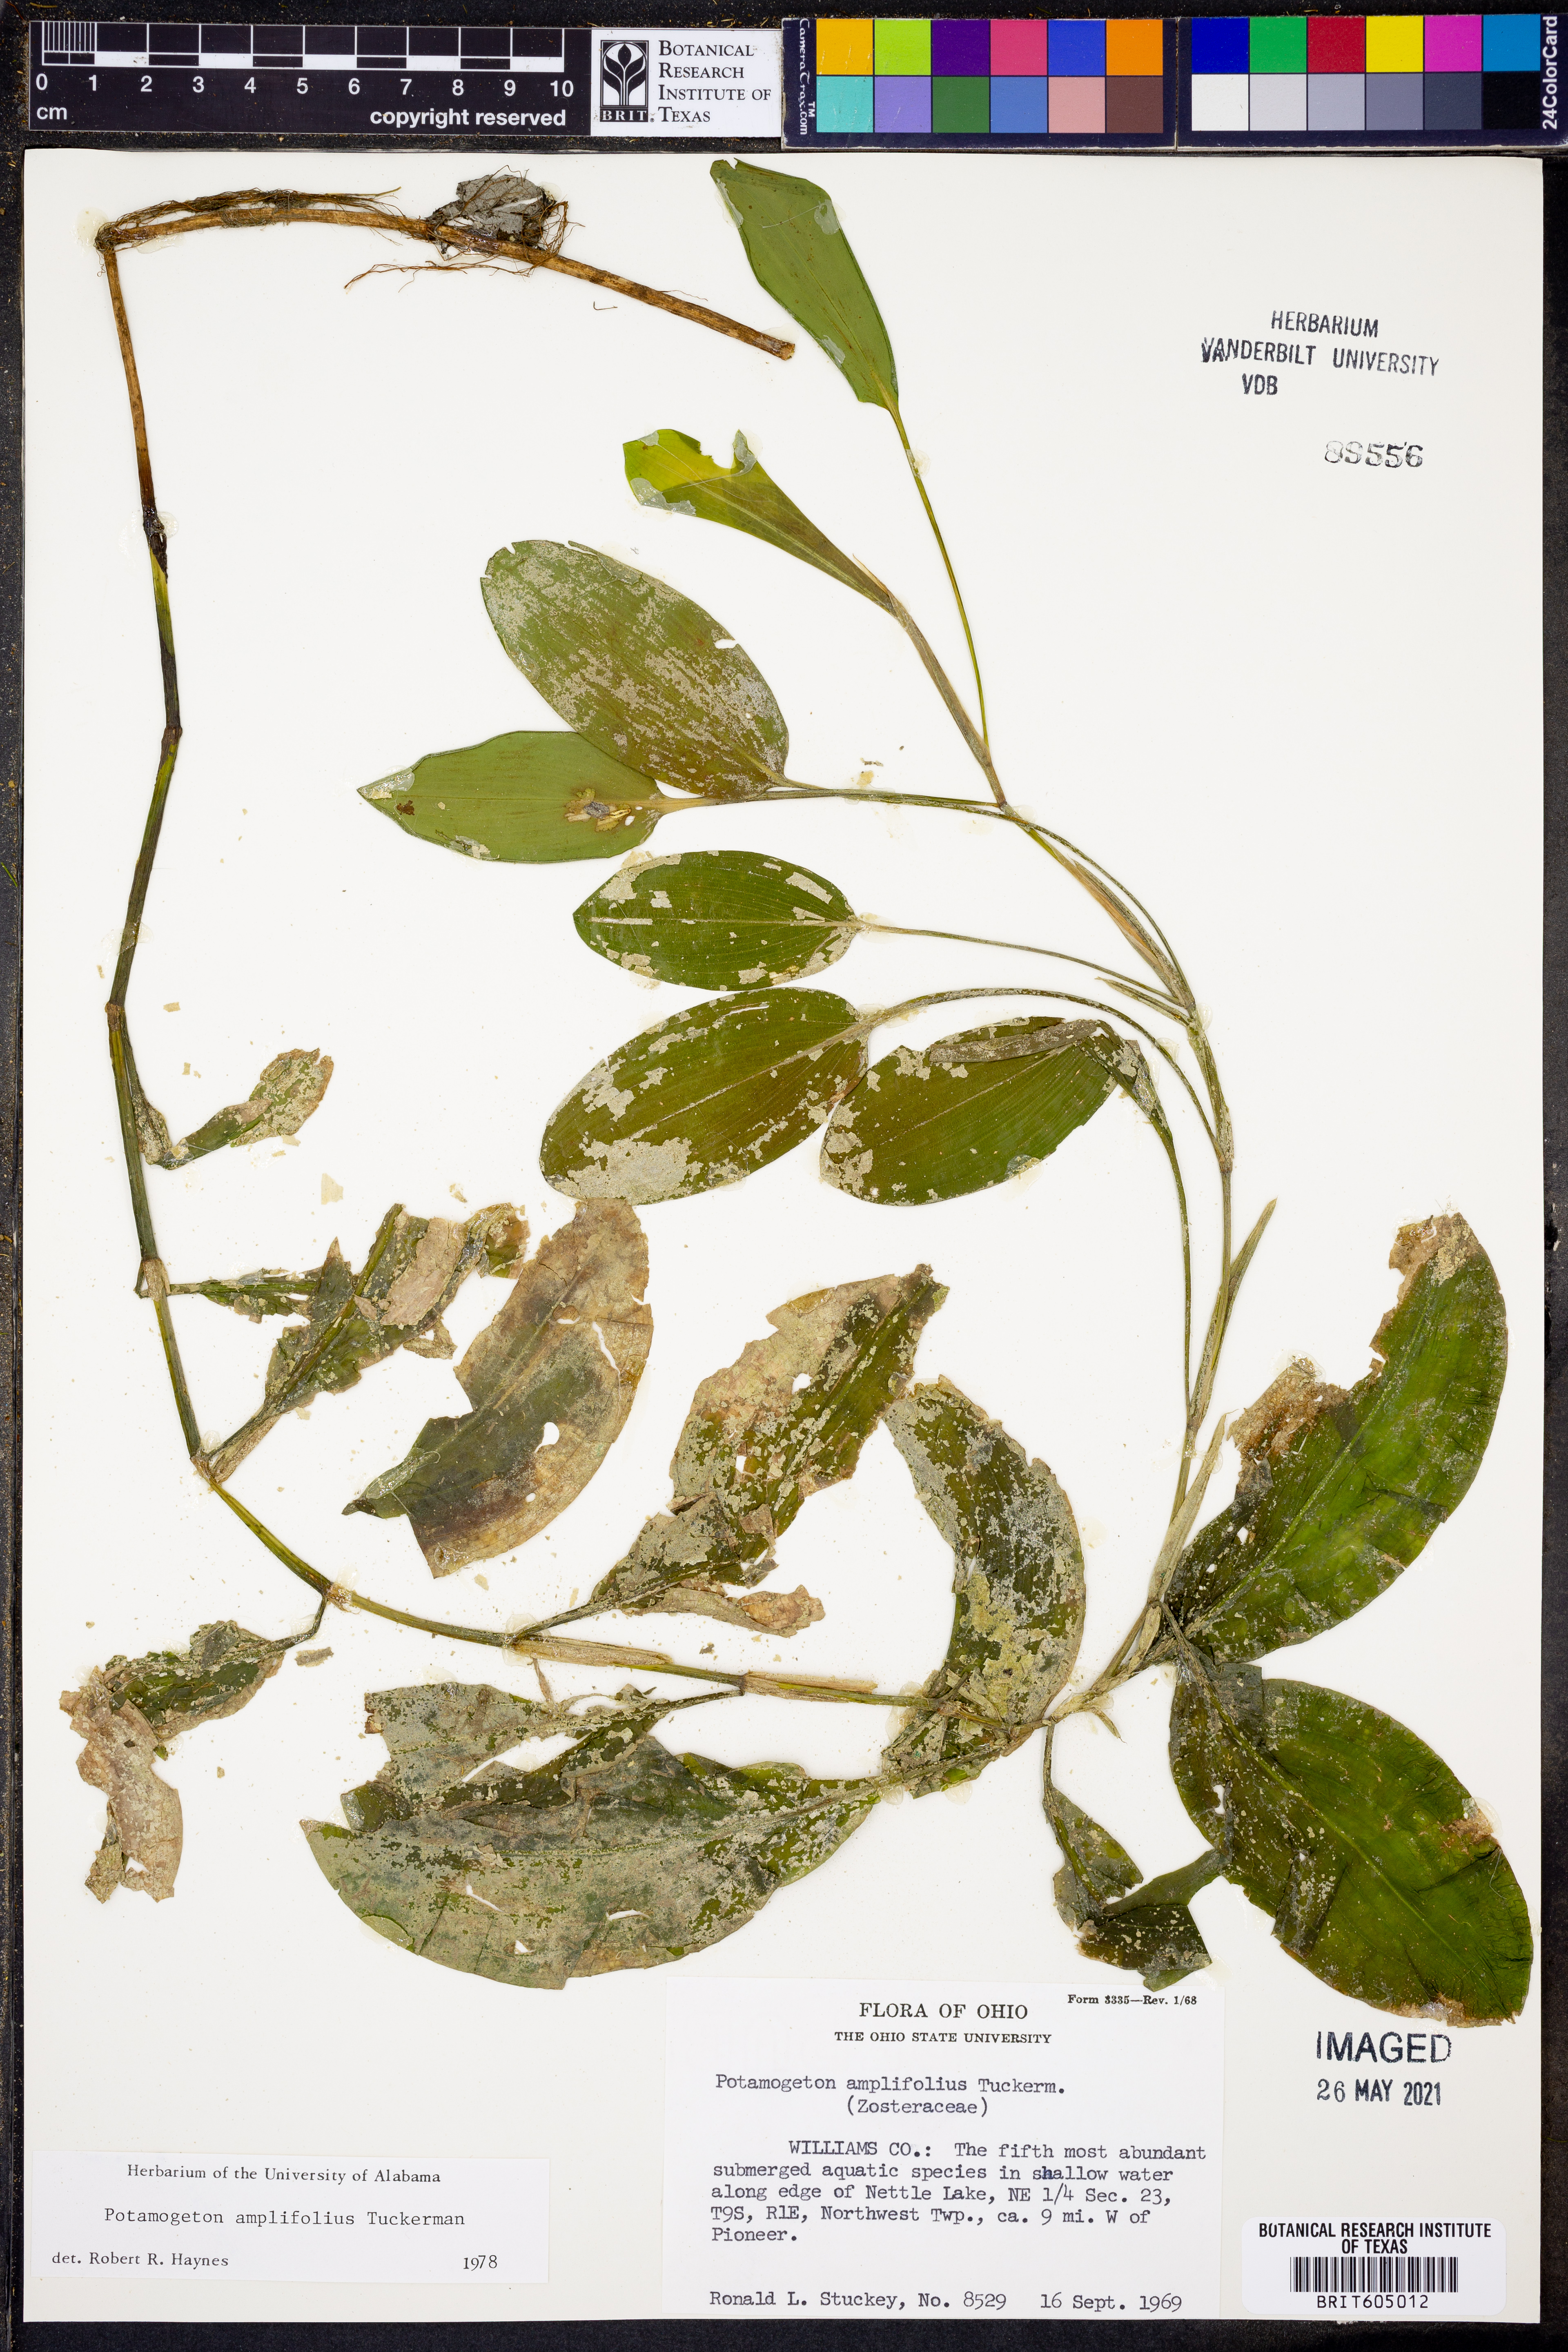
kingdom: Plantae
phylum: Tracheophyta
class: Liliopsida
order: Alismatales
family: Potamogetonaceae
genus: Potamogeton
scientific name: Potamogeton amplifolius
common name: Broad-leaved pondweed
